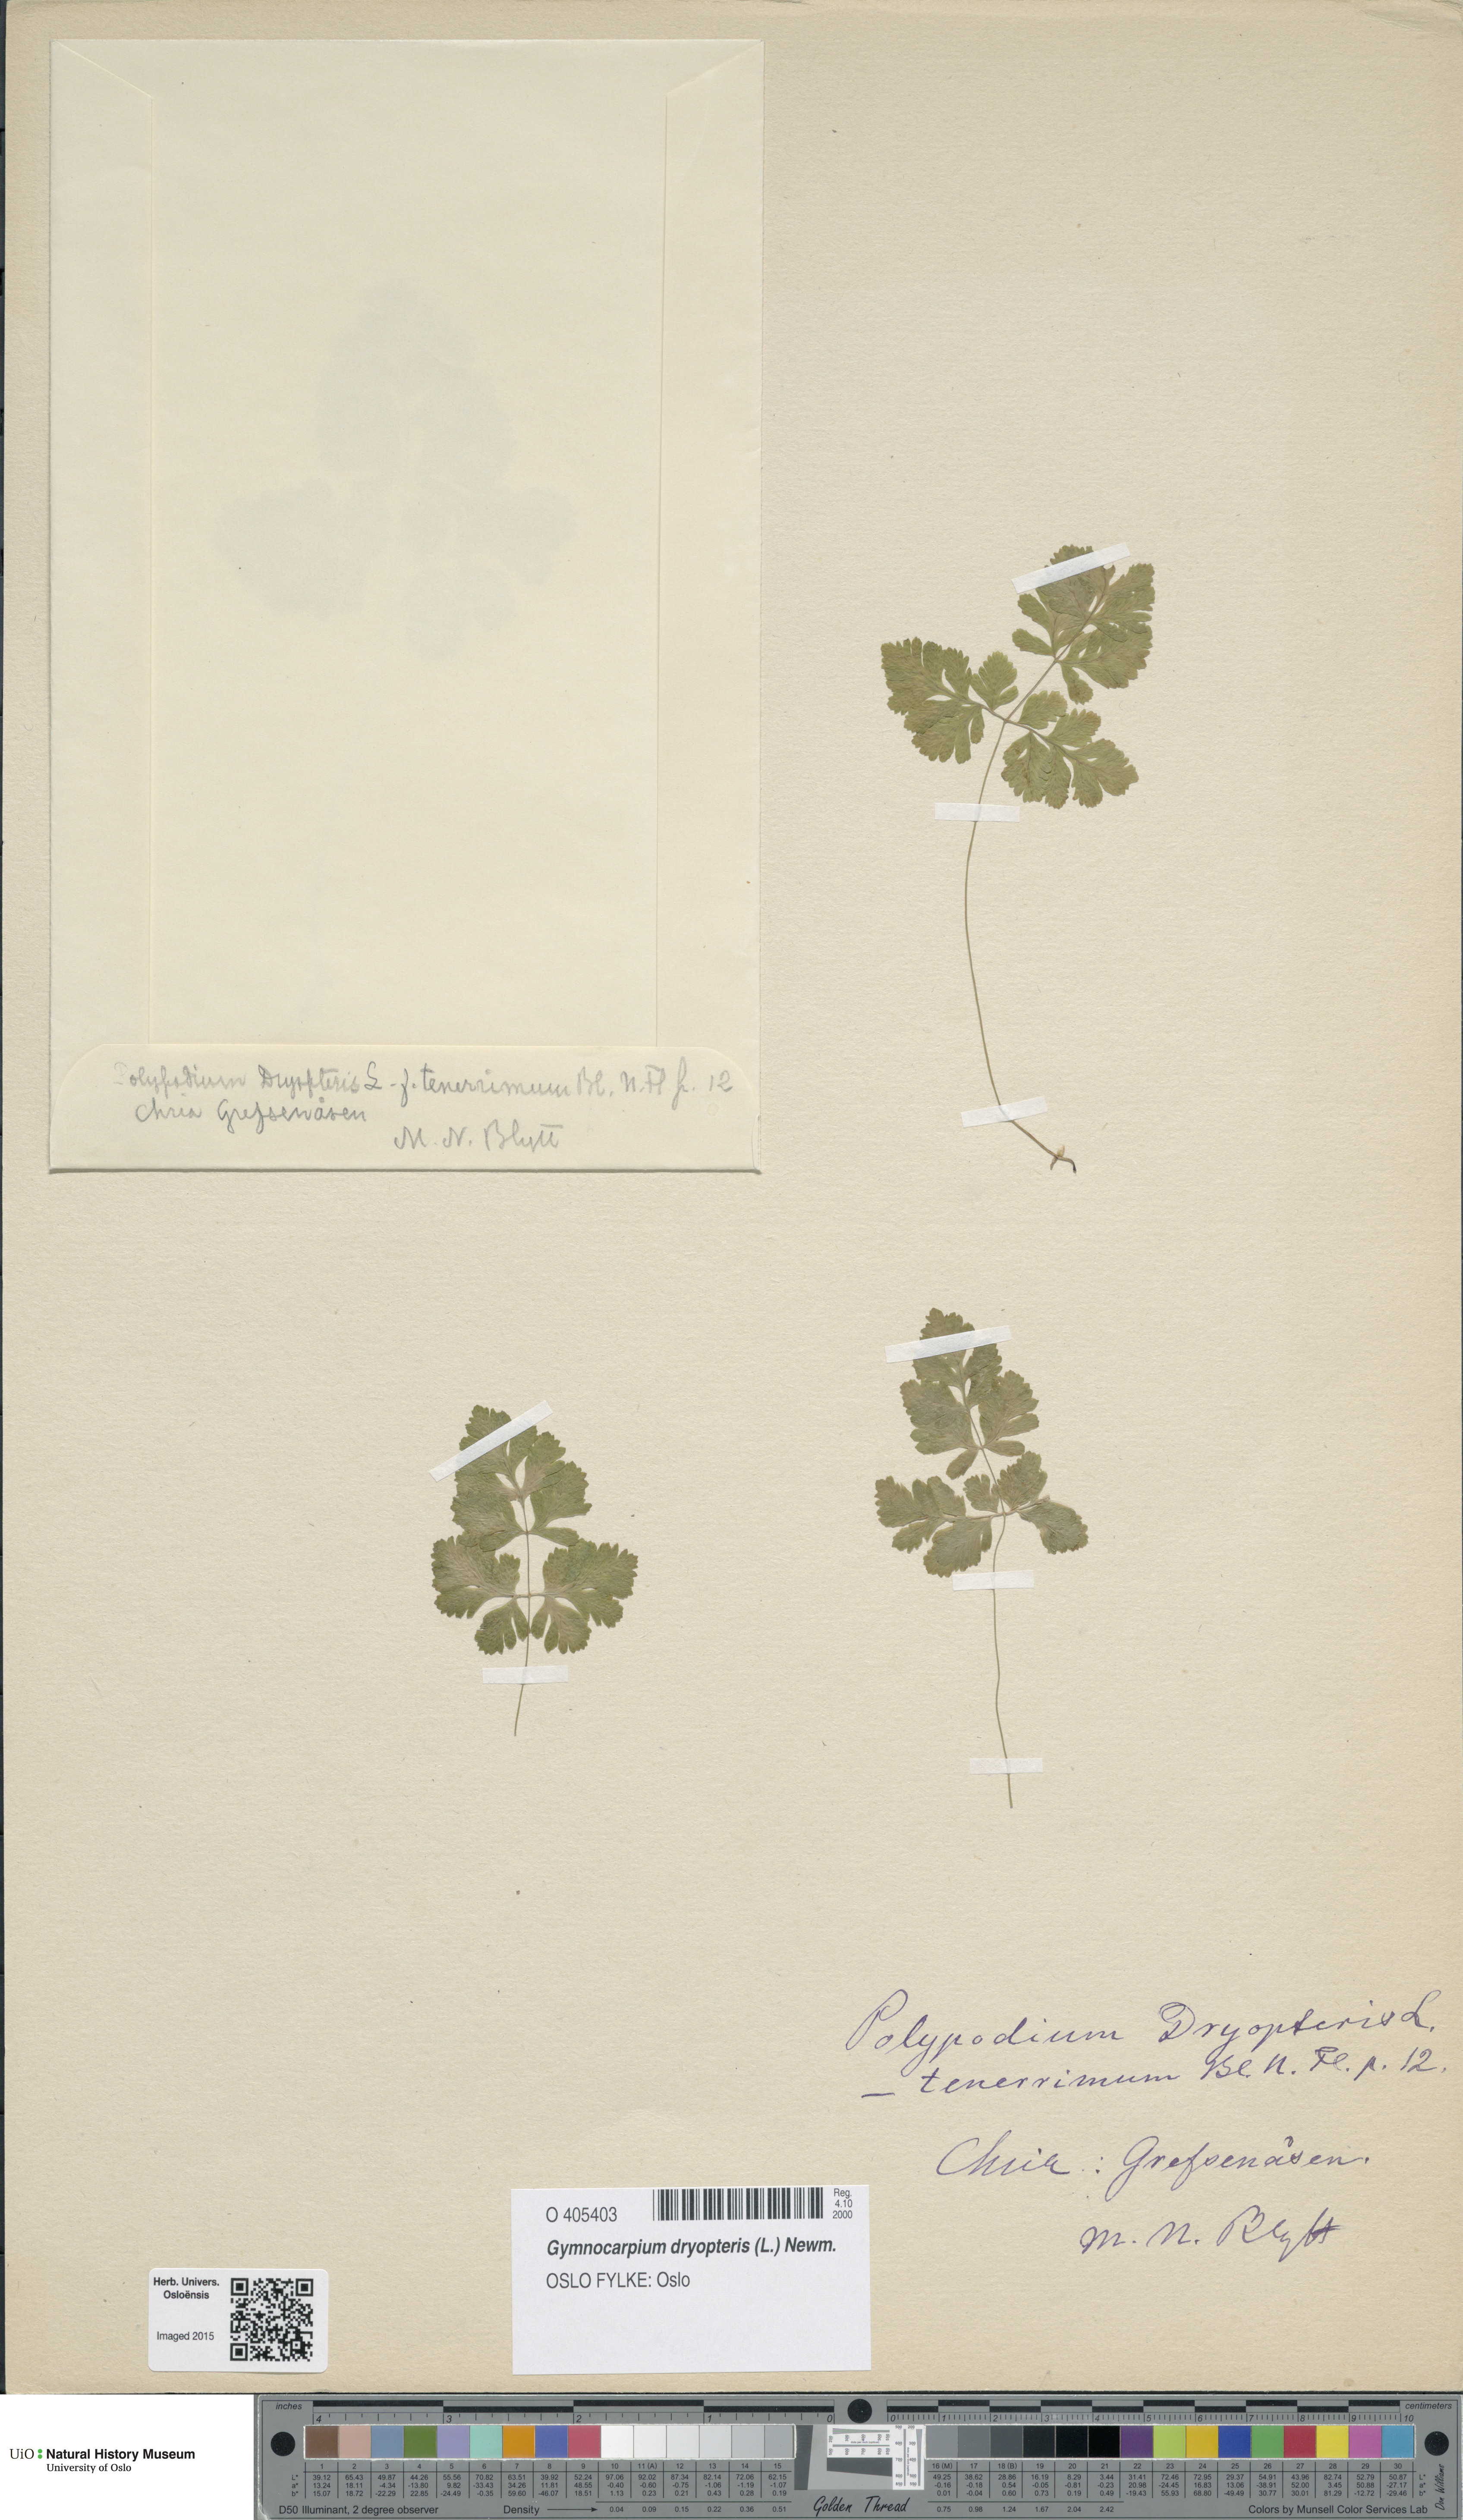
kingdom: Plantae
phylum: Tracheophyta
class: Polypodiopsida
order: Polypodiales
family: Cystopteridaceae
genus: Gymnocarpium
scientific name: Gymnocarpium dryopteris
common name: Oak fern
